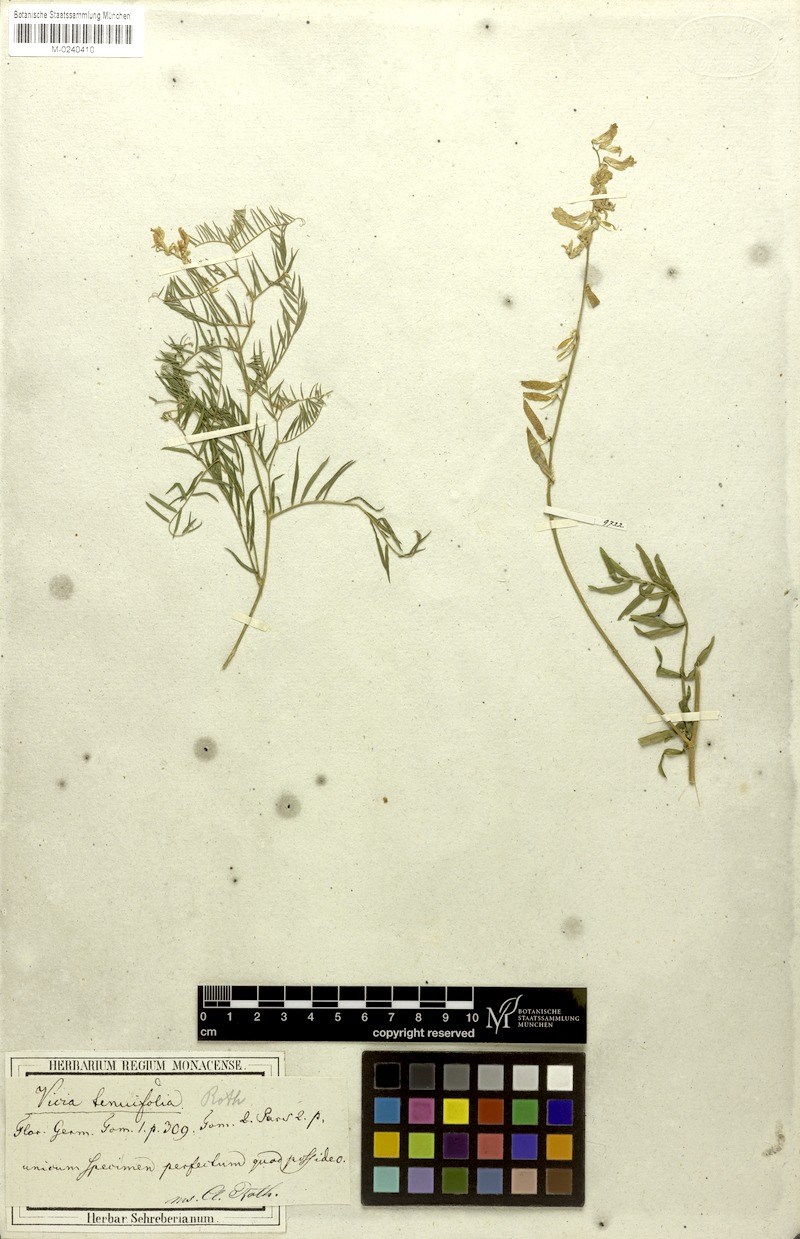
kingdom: Plantae
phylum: Tracheophyta
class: Magnoliopsida
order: Fabales
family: Fabaceae
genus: Vicia
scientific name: Vicia tenuifolia
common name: Fine-leaved vetch
